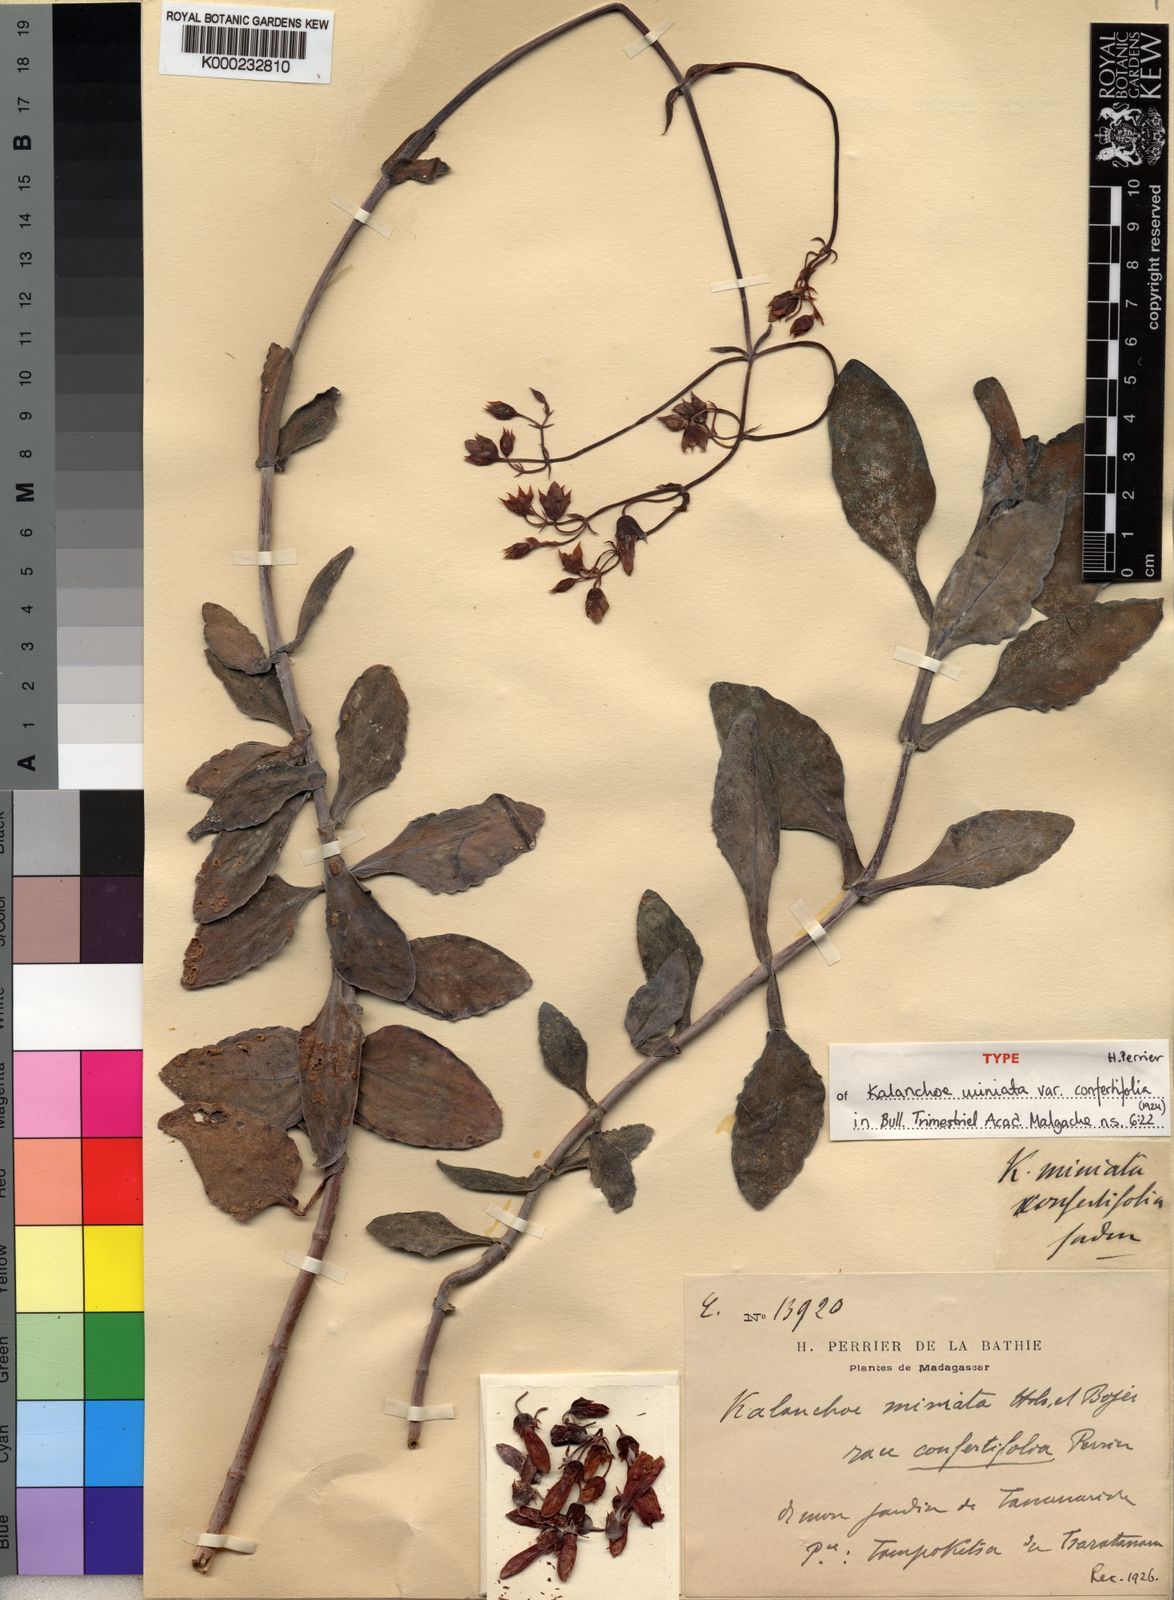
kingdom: Chromista
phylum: Ciliophora
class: Gymnostomatea
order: Spathidiida
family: Spathidiidae
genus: Bryophyllum
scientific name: Bryophyllum
